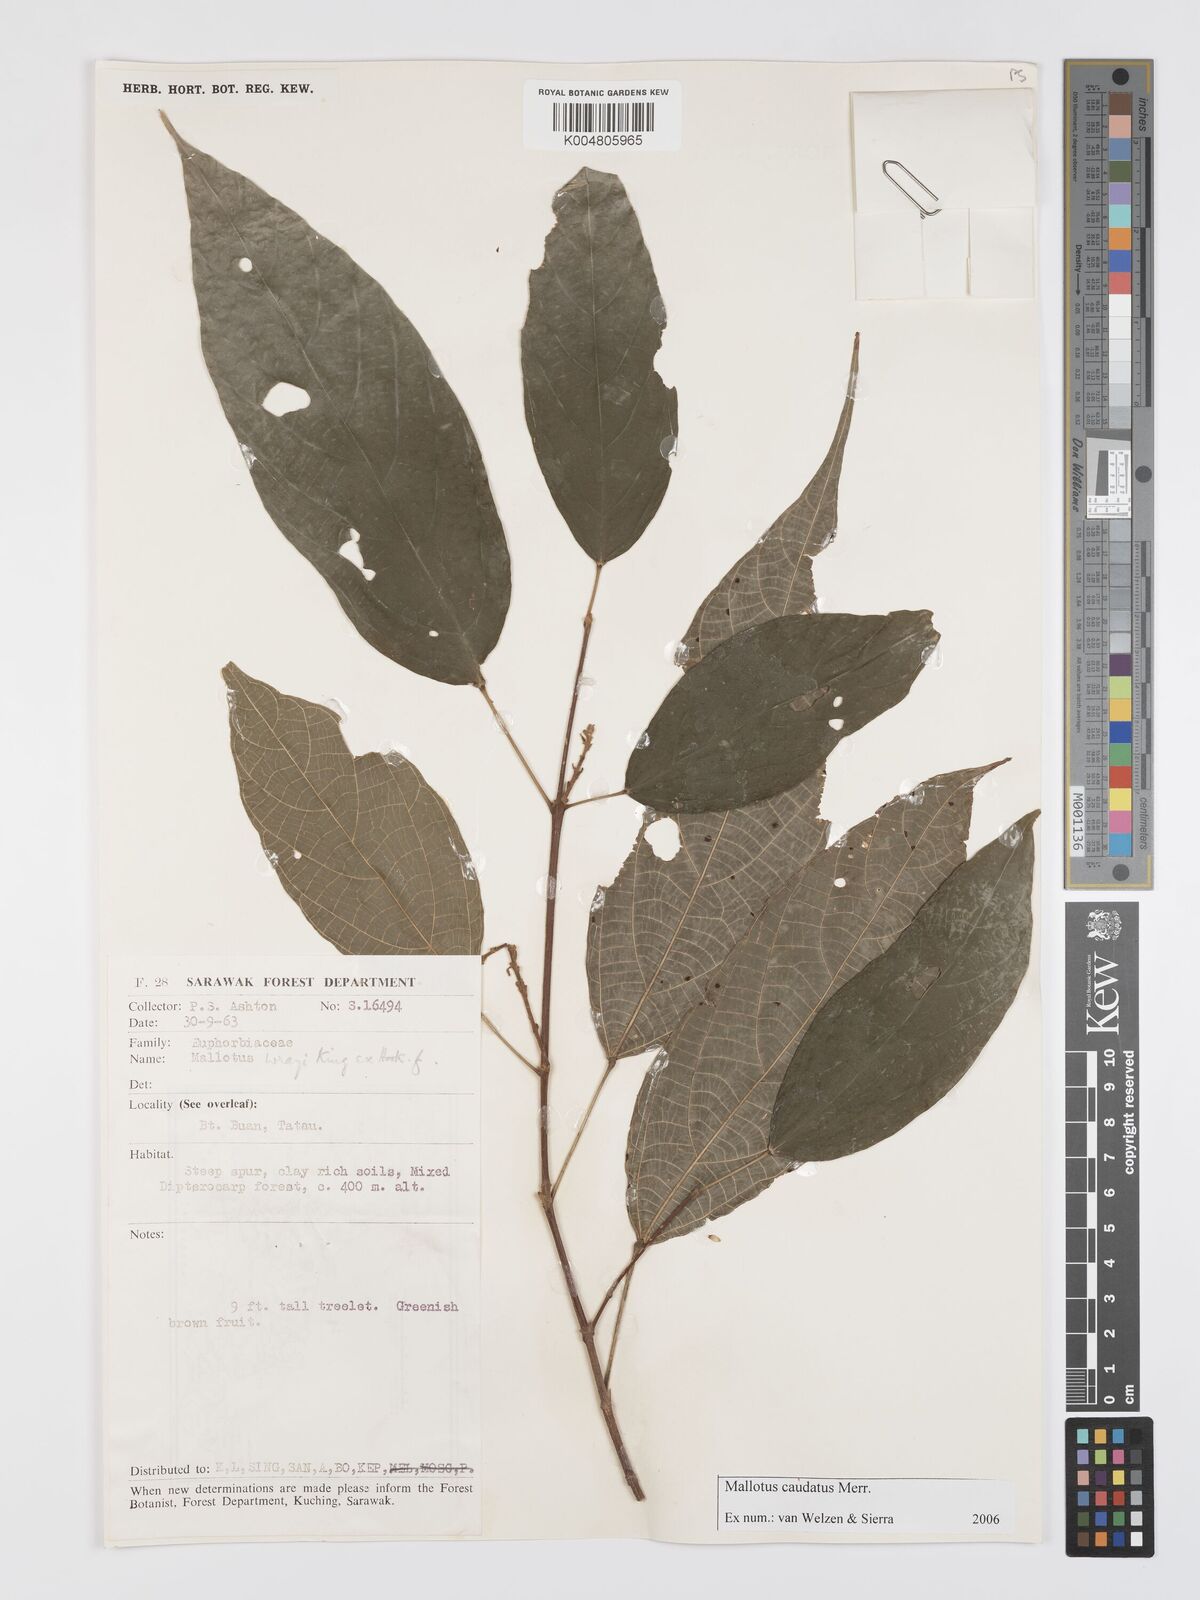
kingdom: Plantae
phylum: Tracheophyta
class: Magnoliopsida
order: Malpighiales
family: Euphorbiaceae
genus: Mallotus
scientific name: Mallotus caudatus
